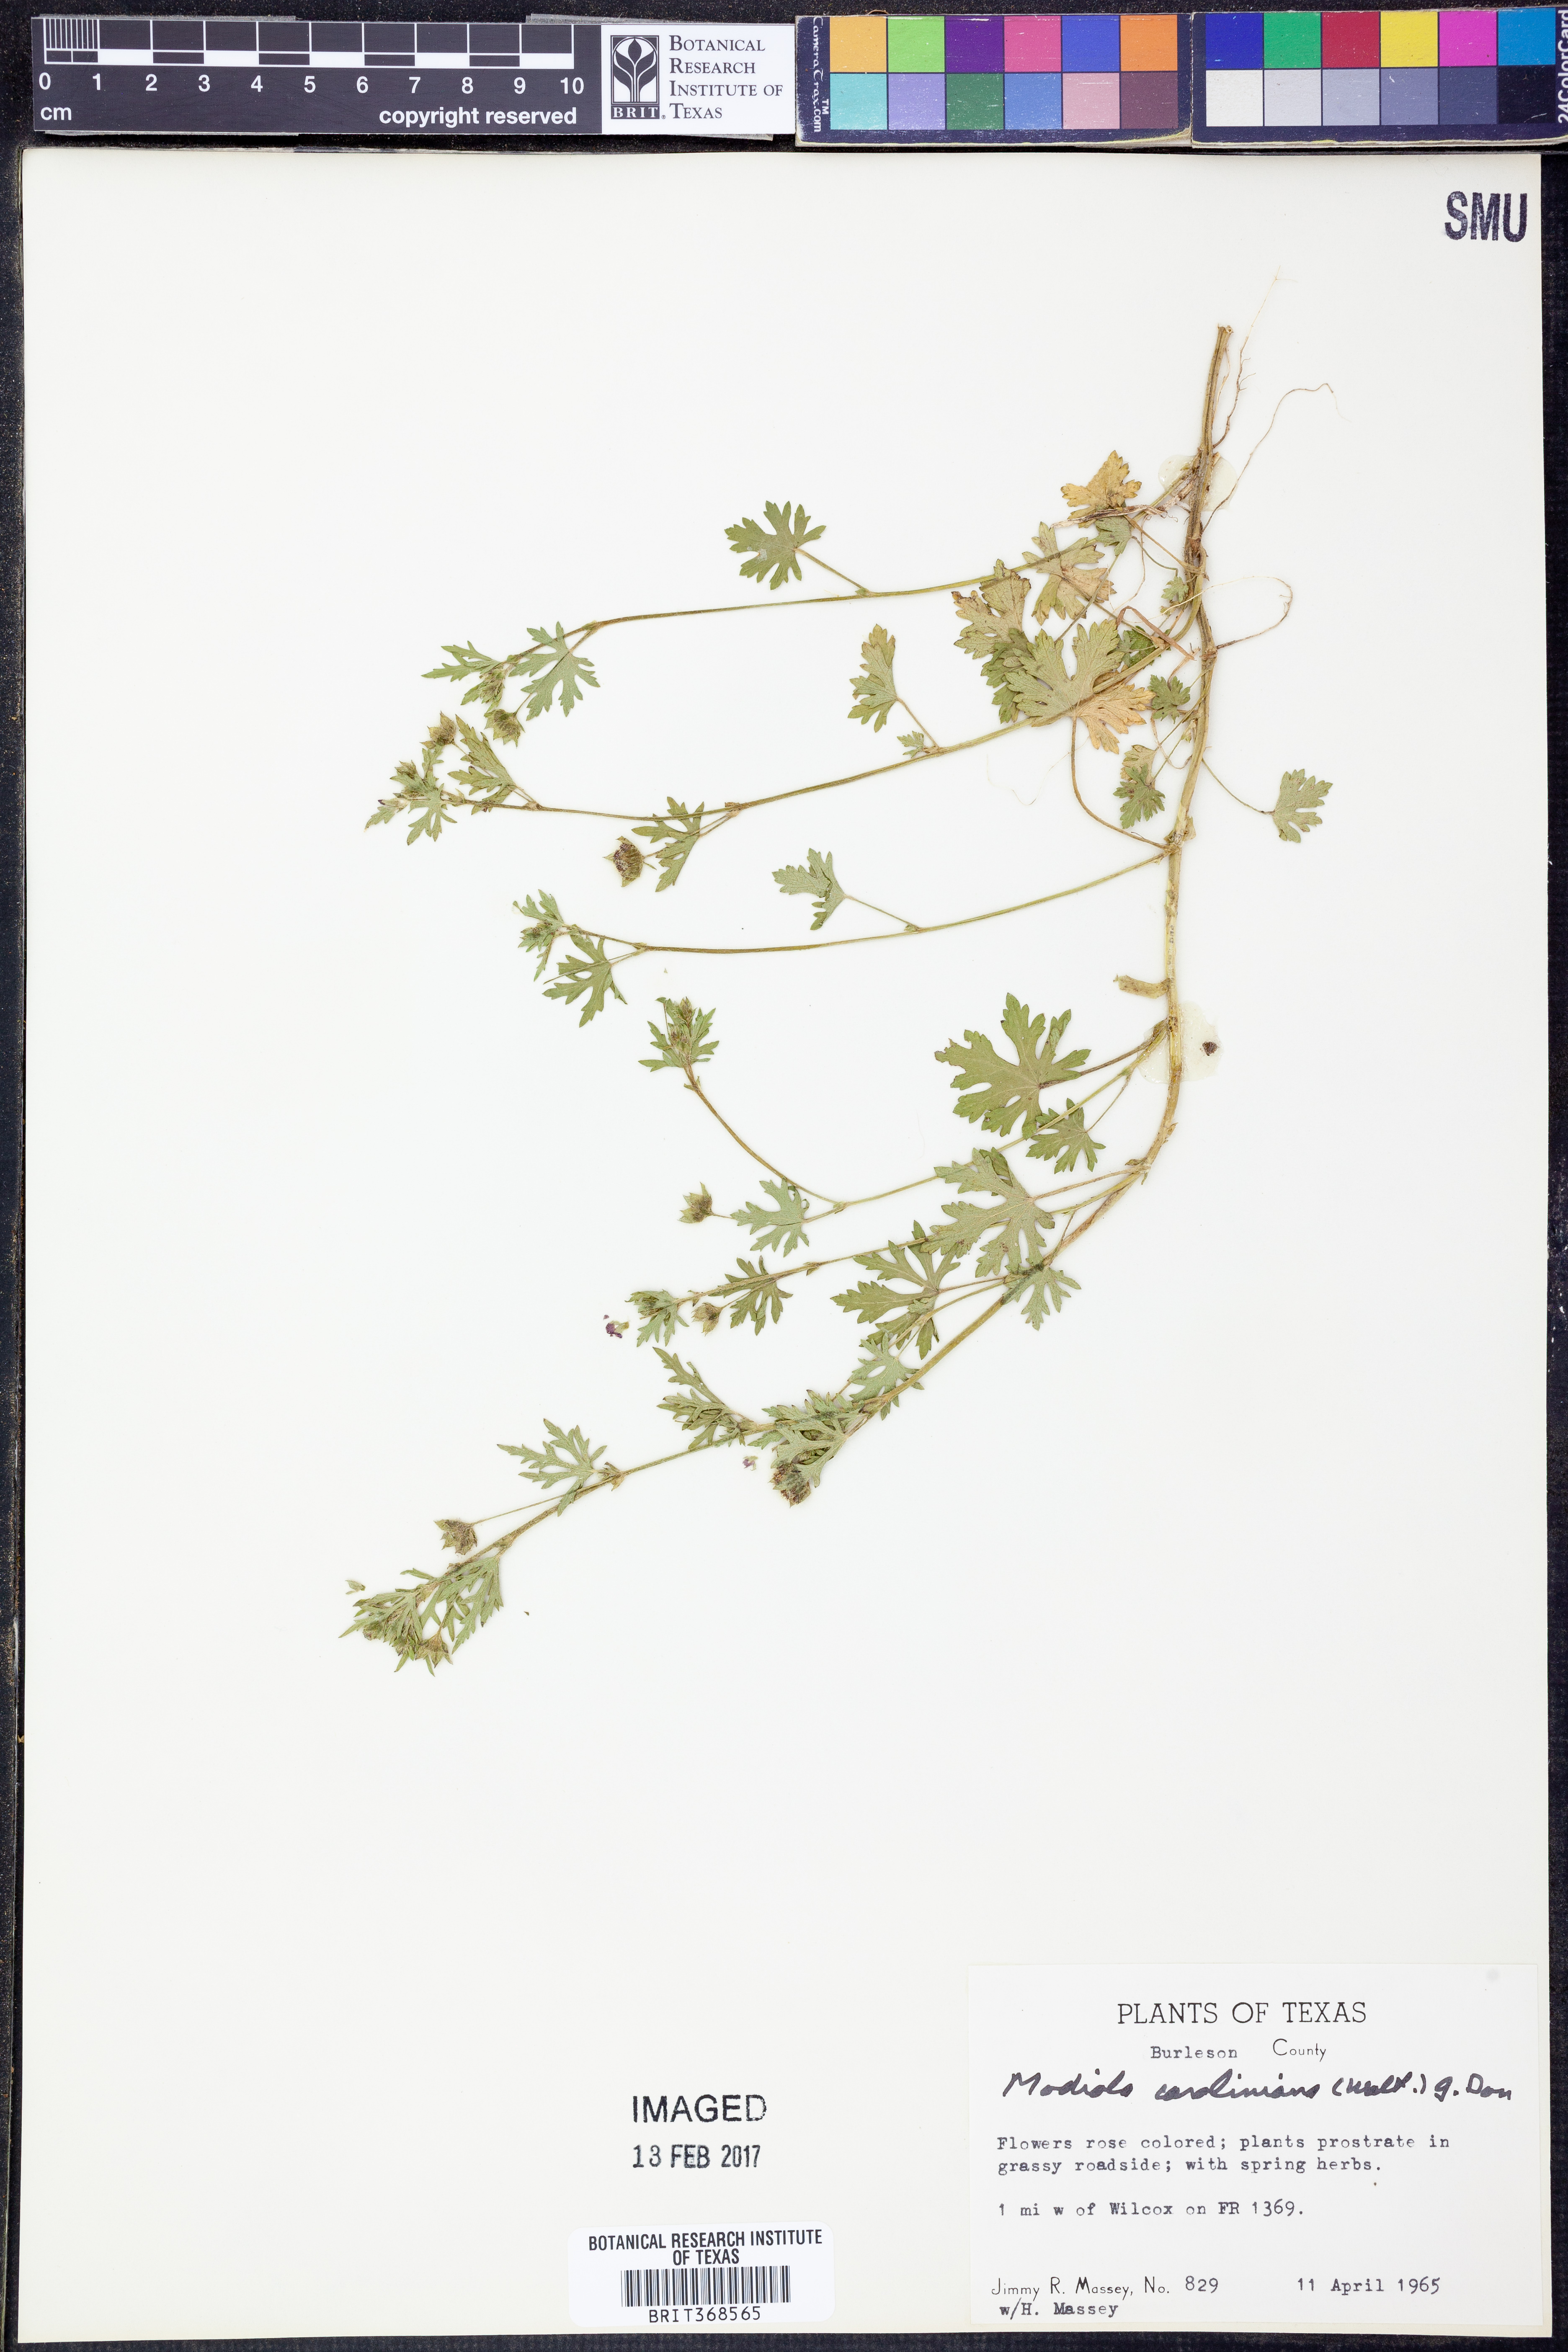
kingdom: Plantae
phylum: Tracheophyta
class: Magnoliopsida
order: Malvales
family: Malvaceae
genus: Modiola
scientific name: Modiola caroliniana
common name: Carolina bristlemallow
